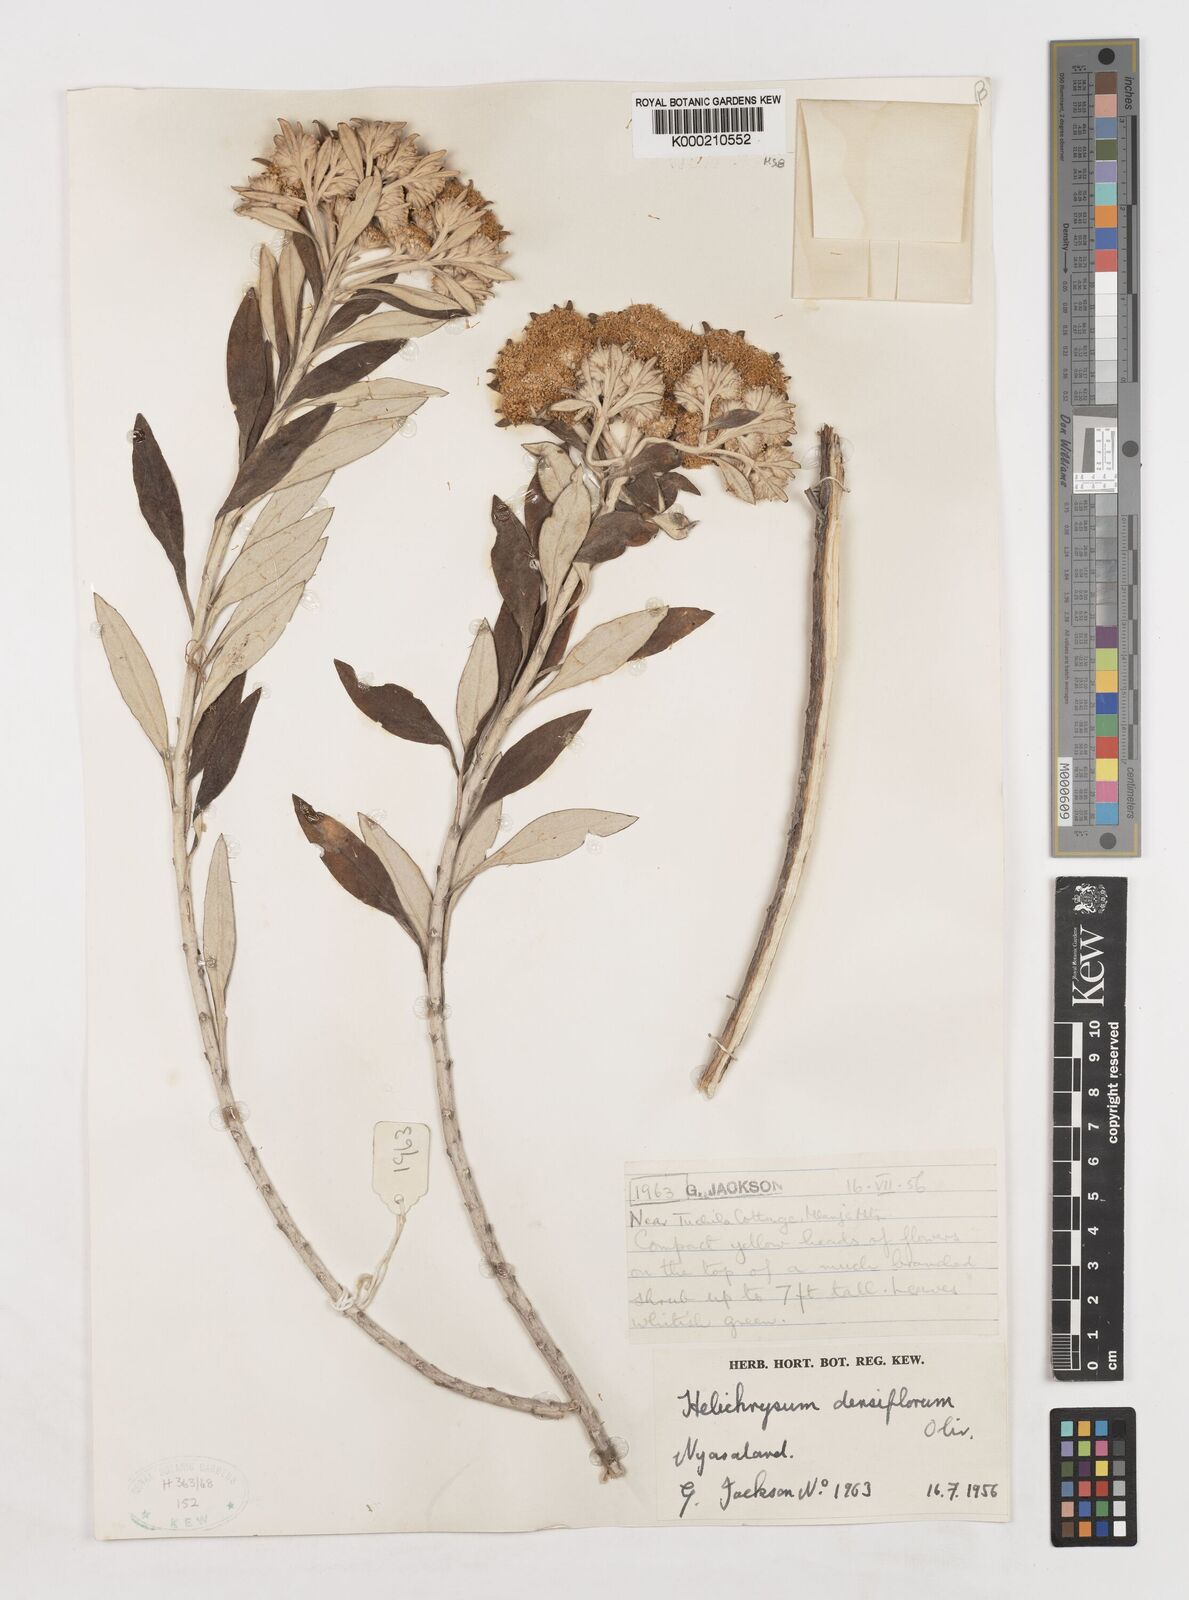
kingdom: Plantae
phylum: Tracheophyta
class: Magnoliopsida
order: Asterales
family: Asteraceae
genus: Helichrysum
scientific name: Helichrysum densiflorum
